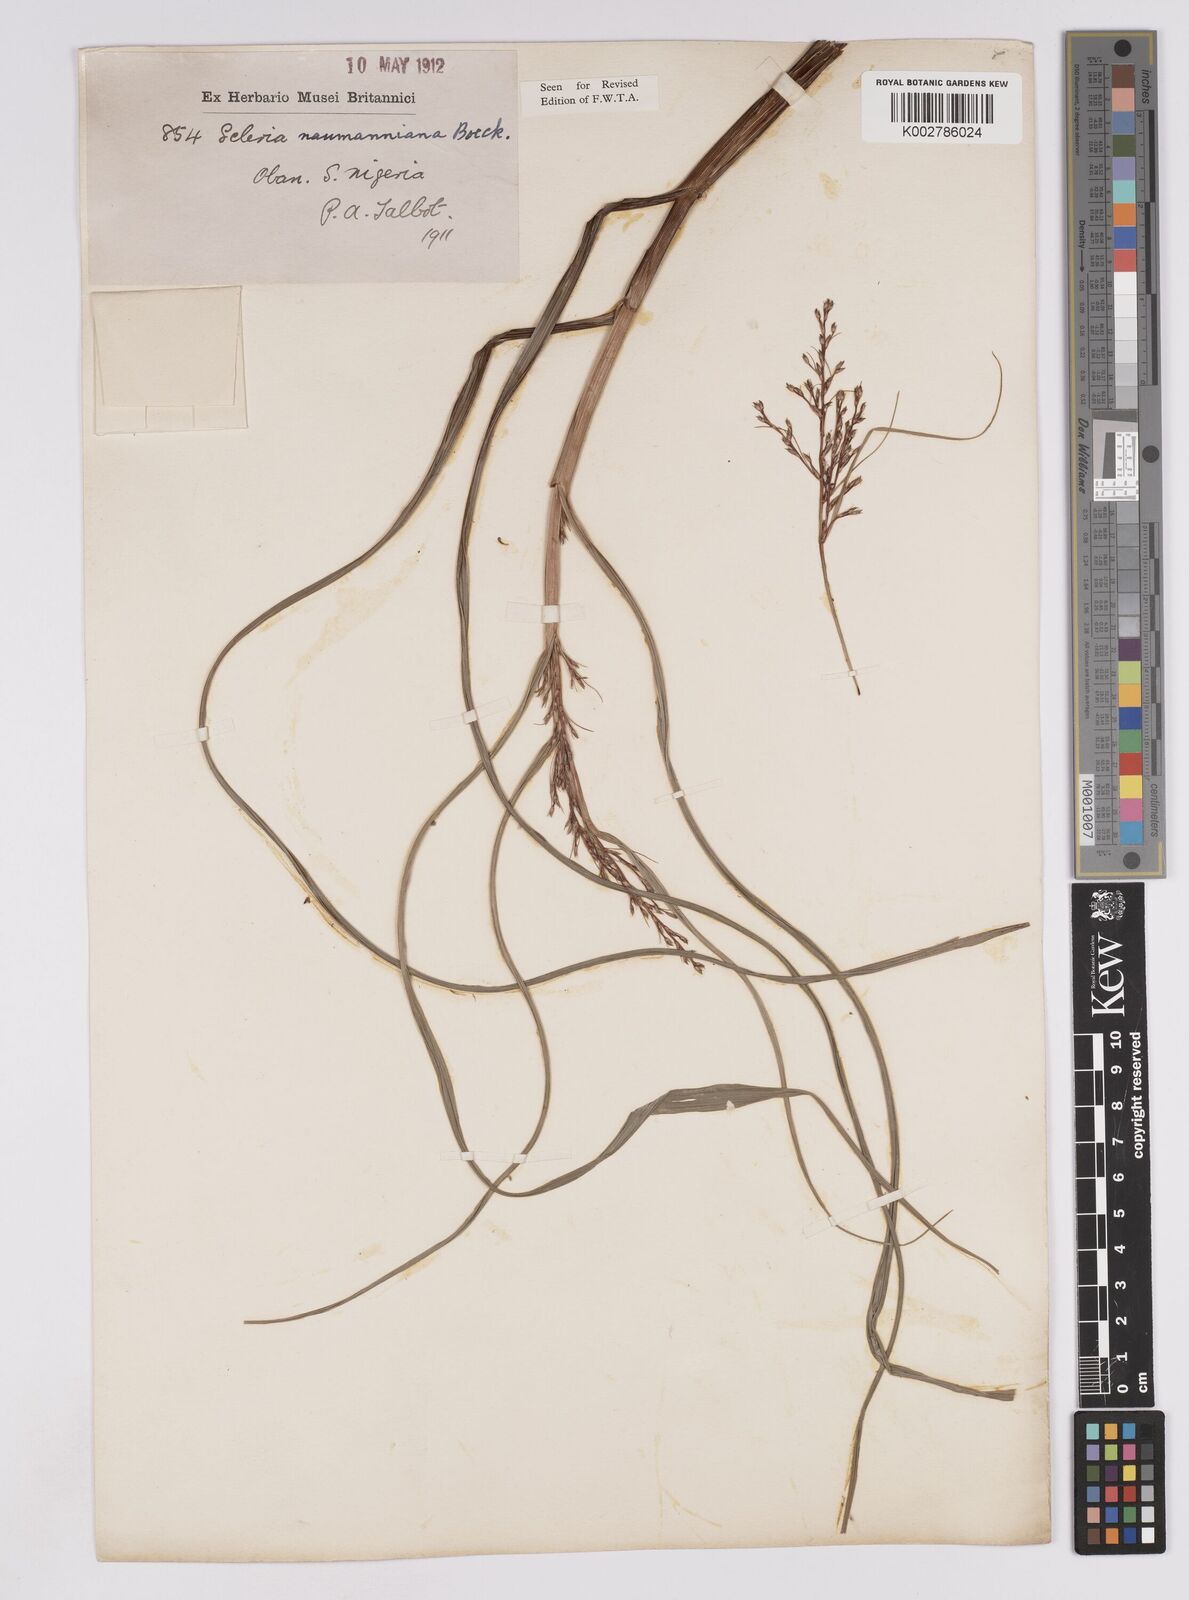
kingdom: Plantae
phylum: Tracheophyta
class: Liliopsida
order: Poales
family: Cyperaceae
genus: Scleria
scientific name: Scleria naumanniana
